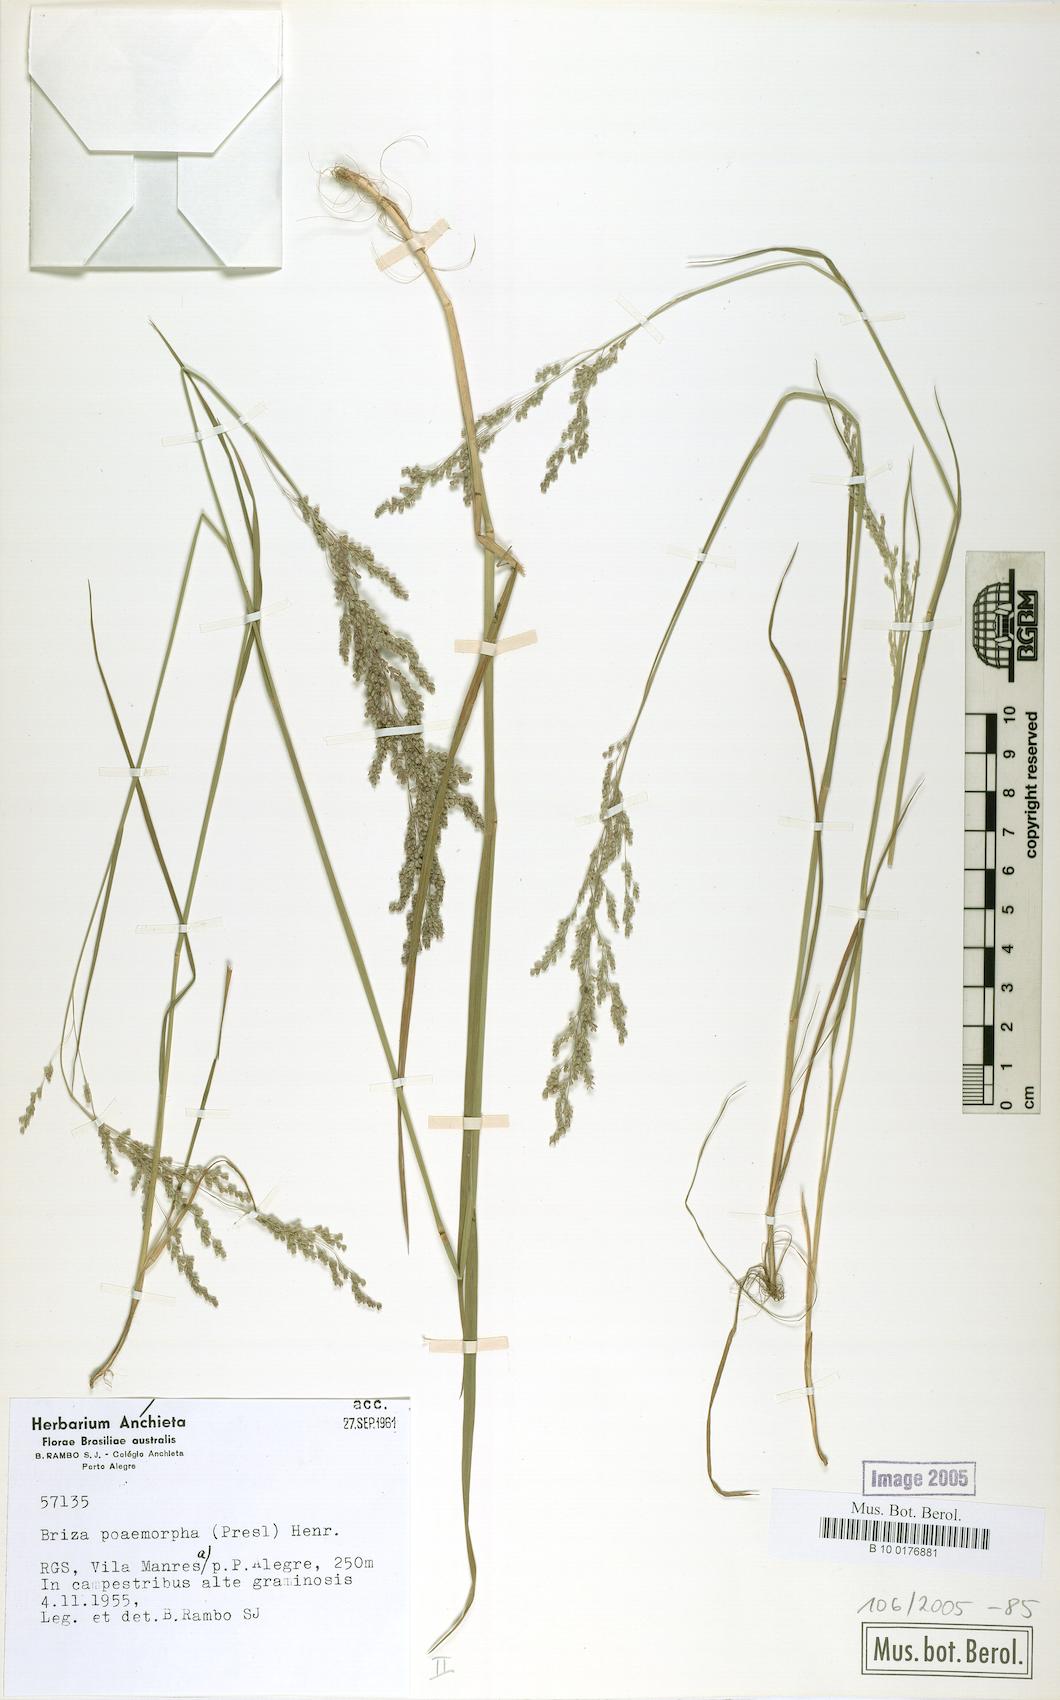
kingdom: Plantae
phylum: Tracheophyta
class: Liliopsida
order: Poales
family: Poaceae
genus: Chascolytrum
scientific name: Chascolytrum poomorphum
